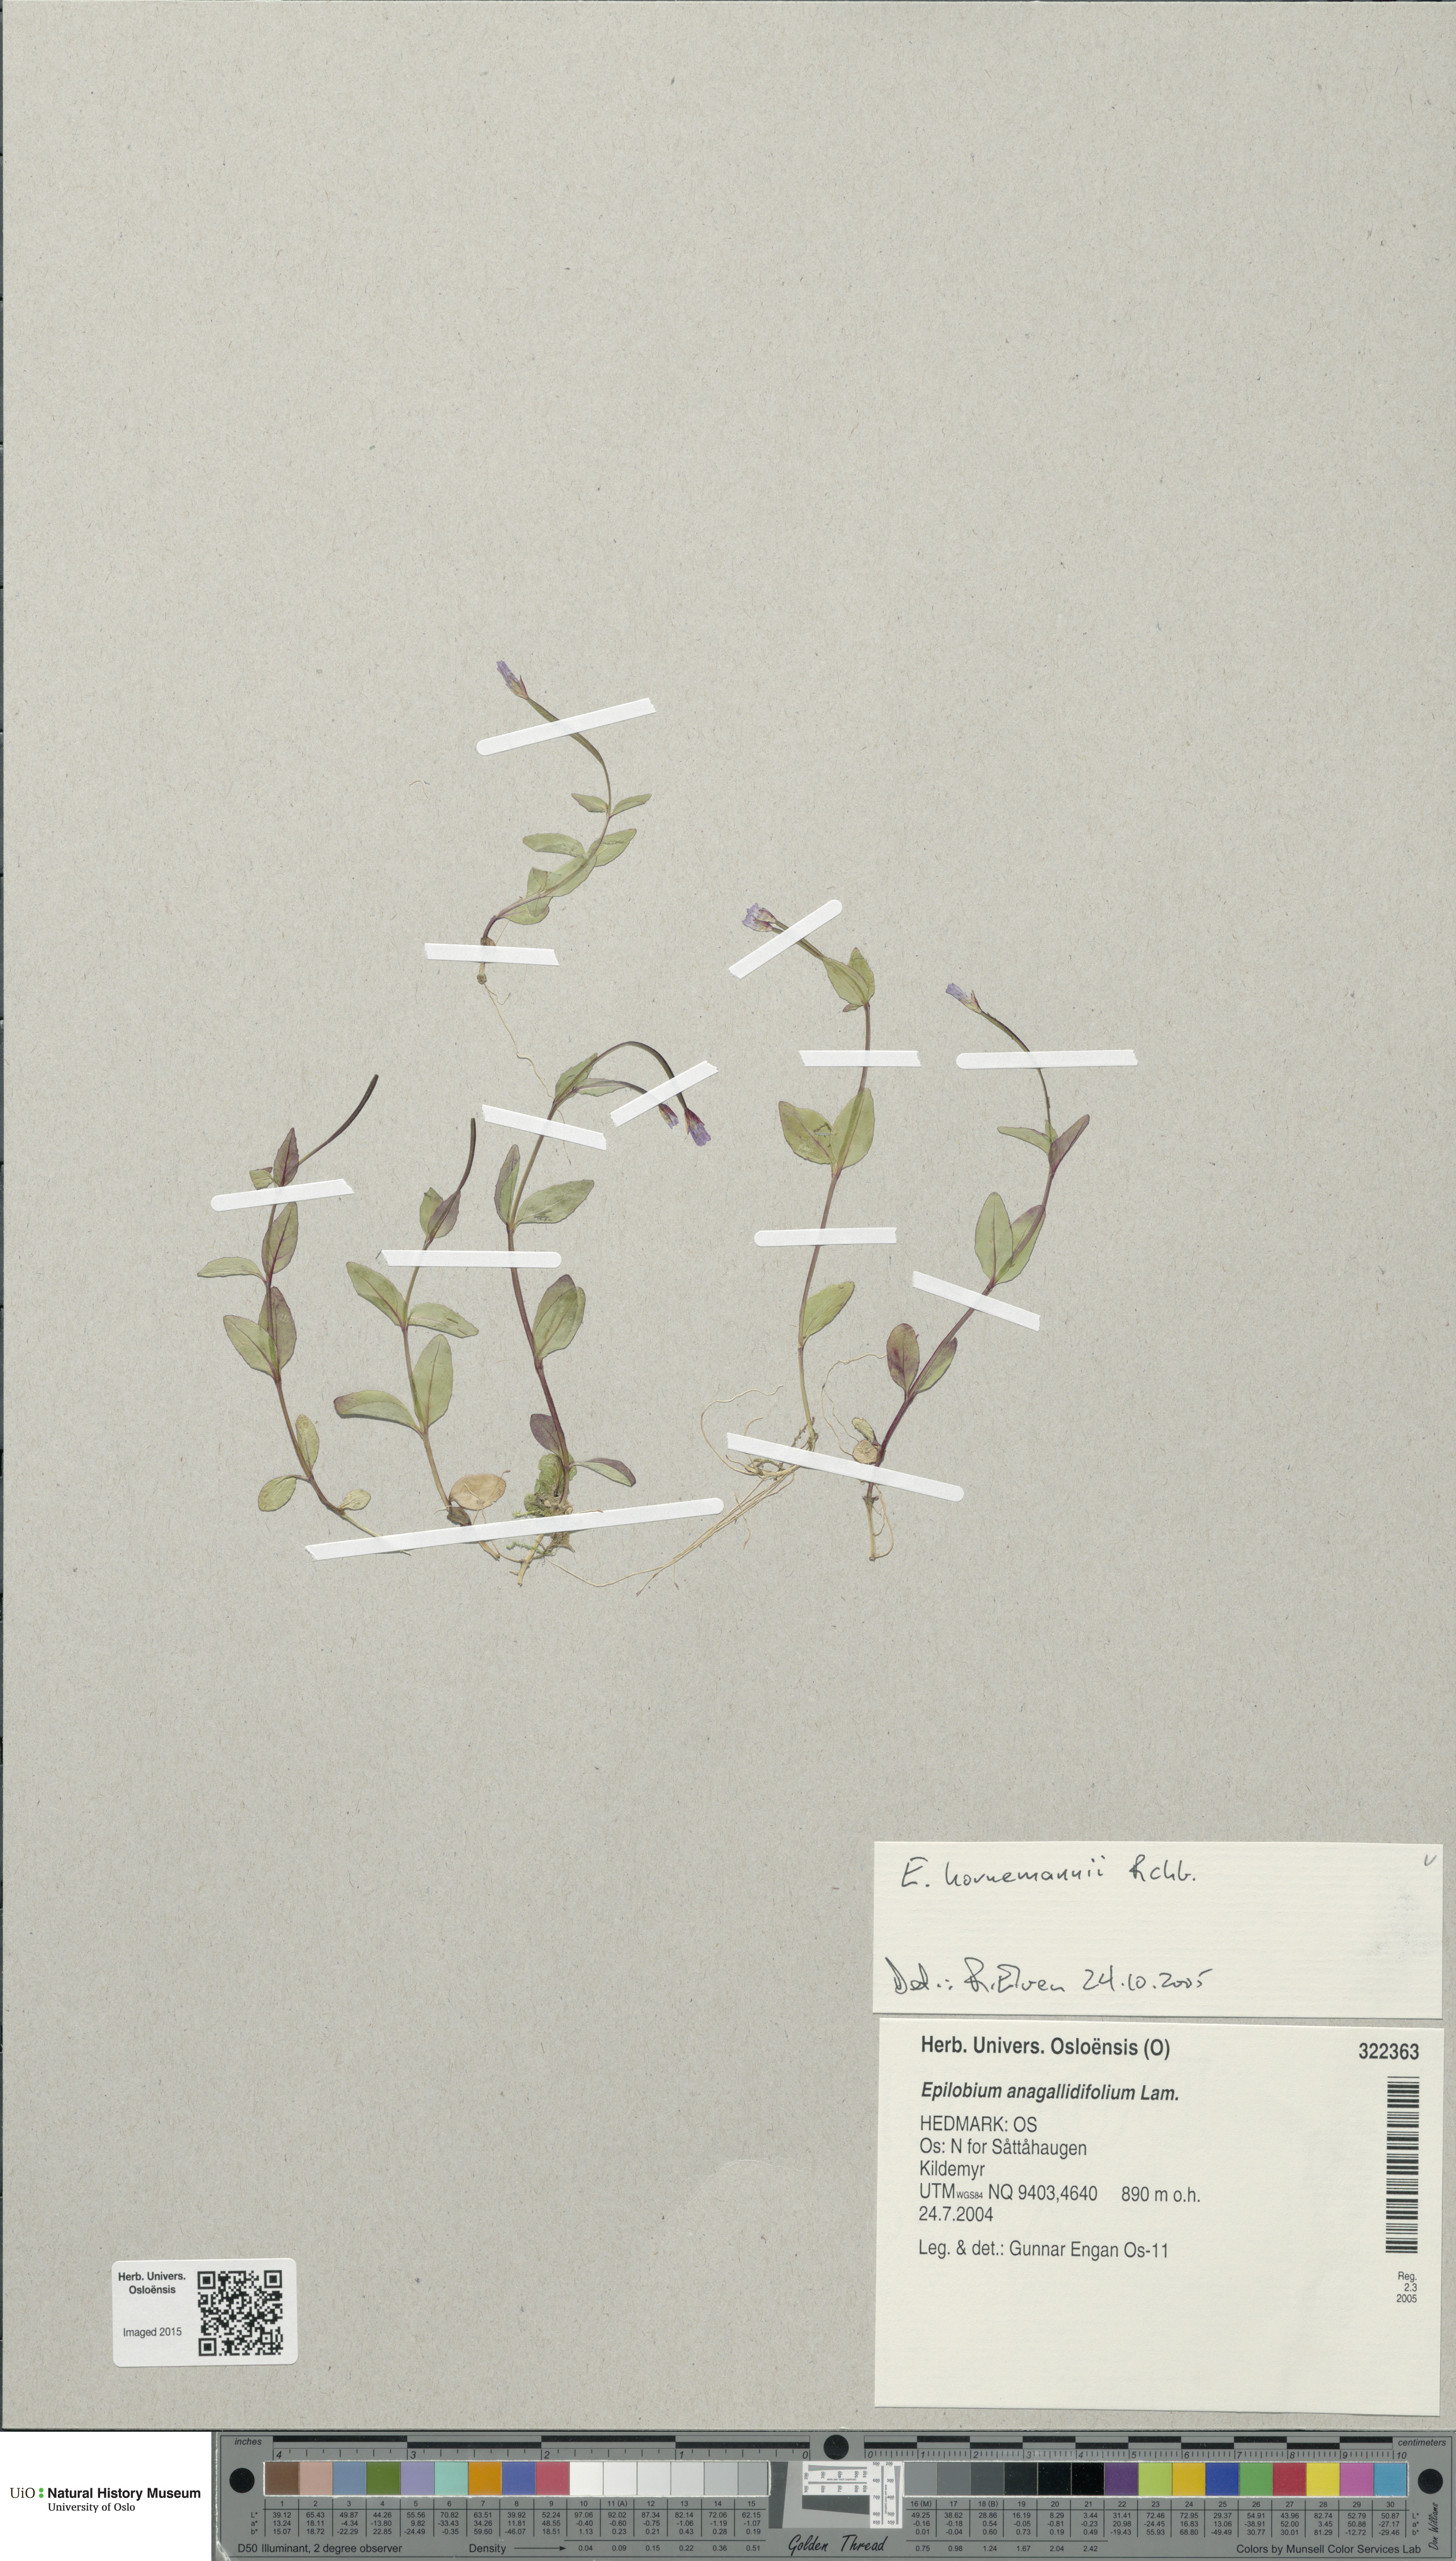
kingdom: Plantae
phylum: Tracheophyta
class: Magnoliopsida
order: Myrtales
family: Onagraceae
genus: Epilobium
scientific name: Epilobium hornemannii
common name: Hornemann's willowherb
